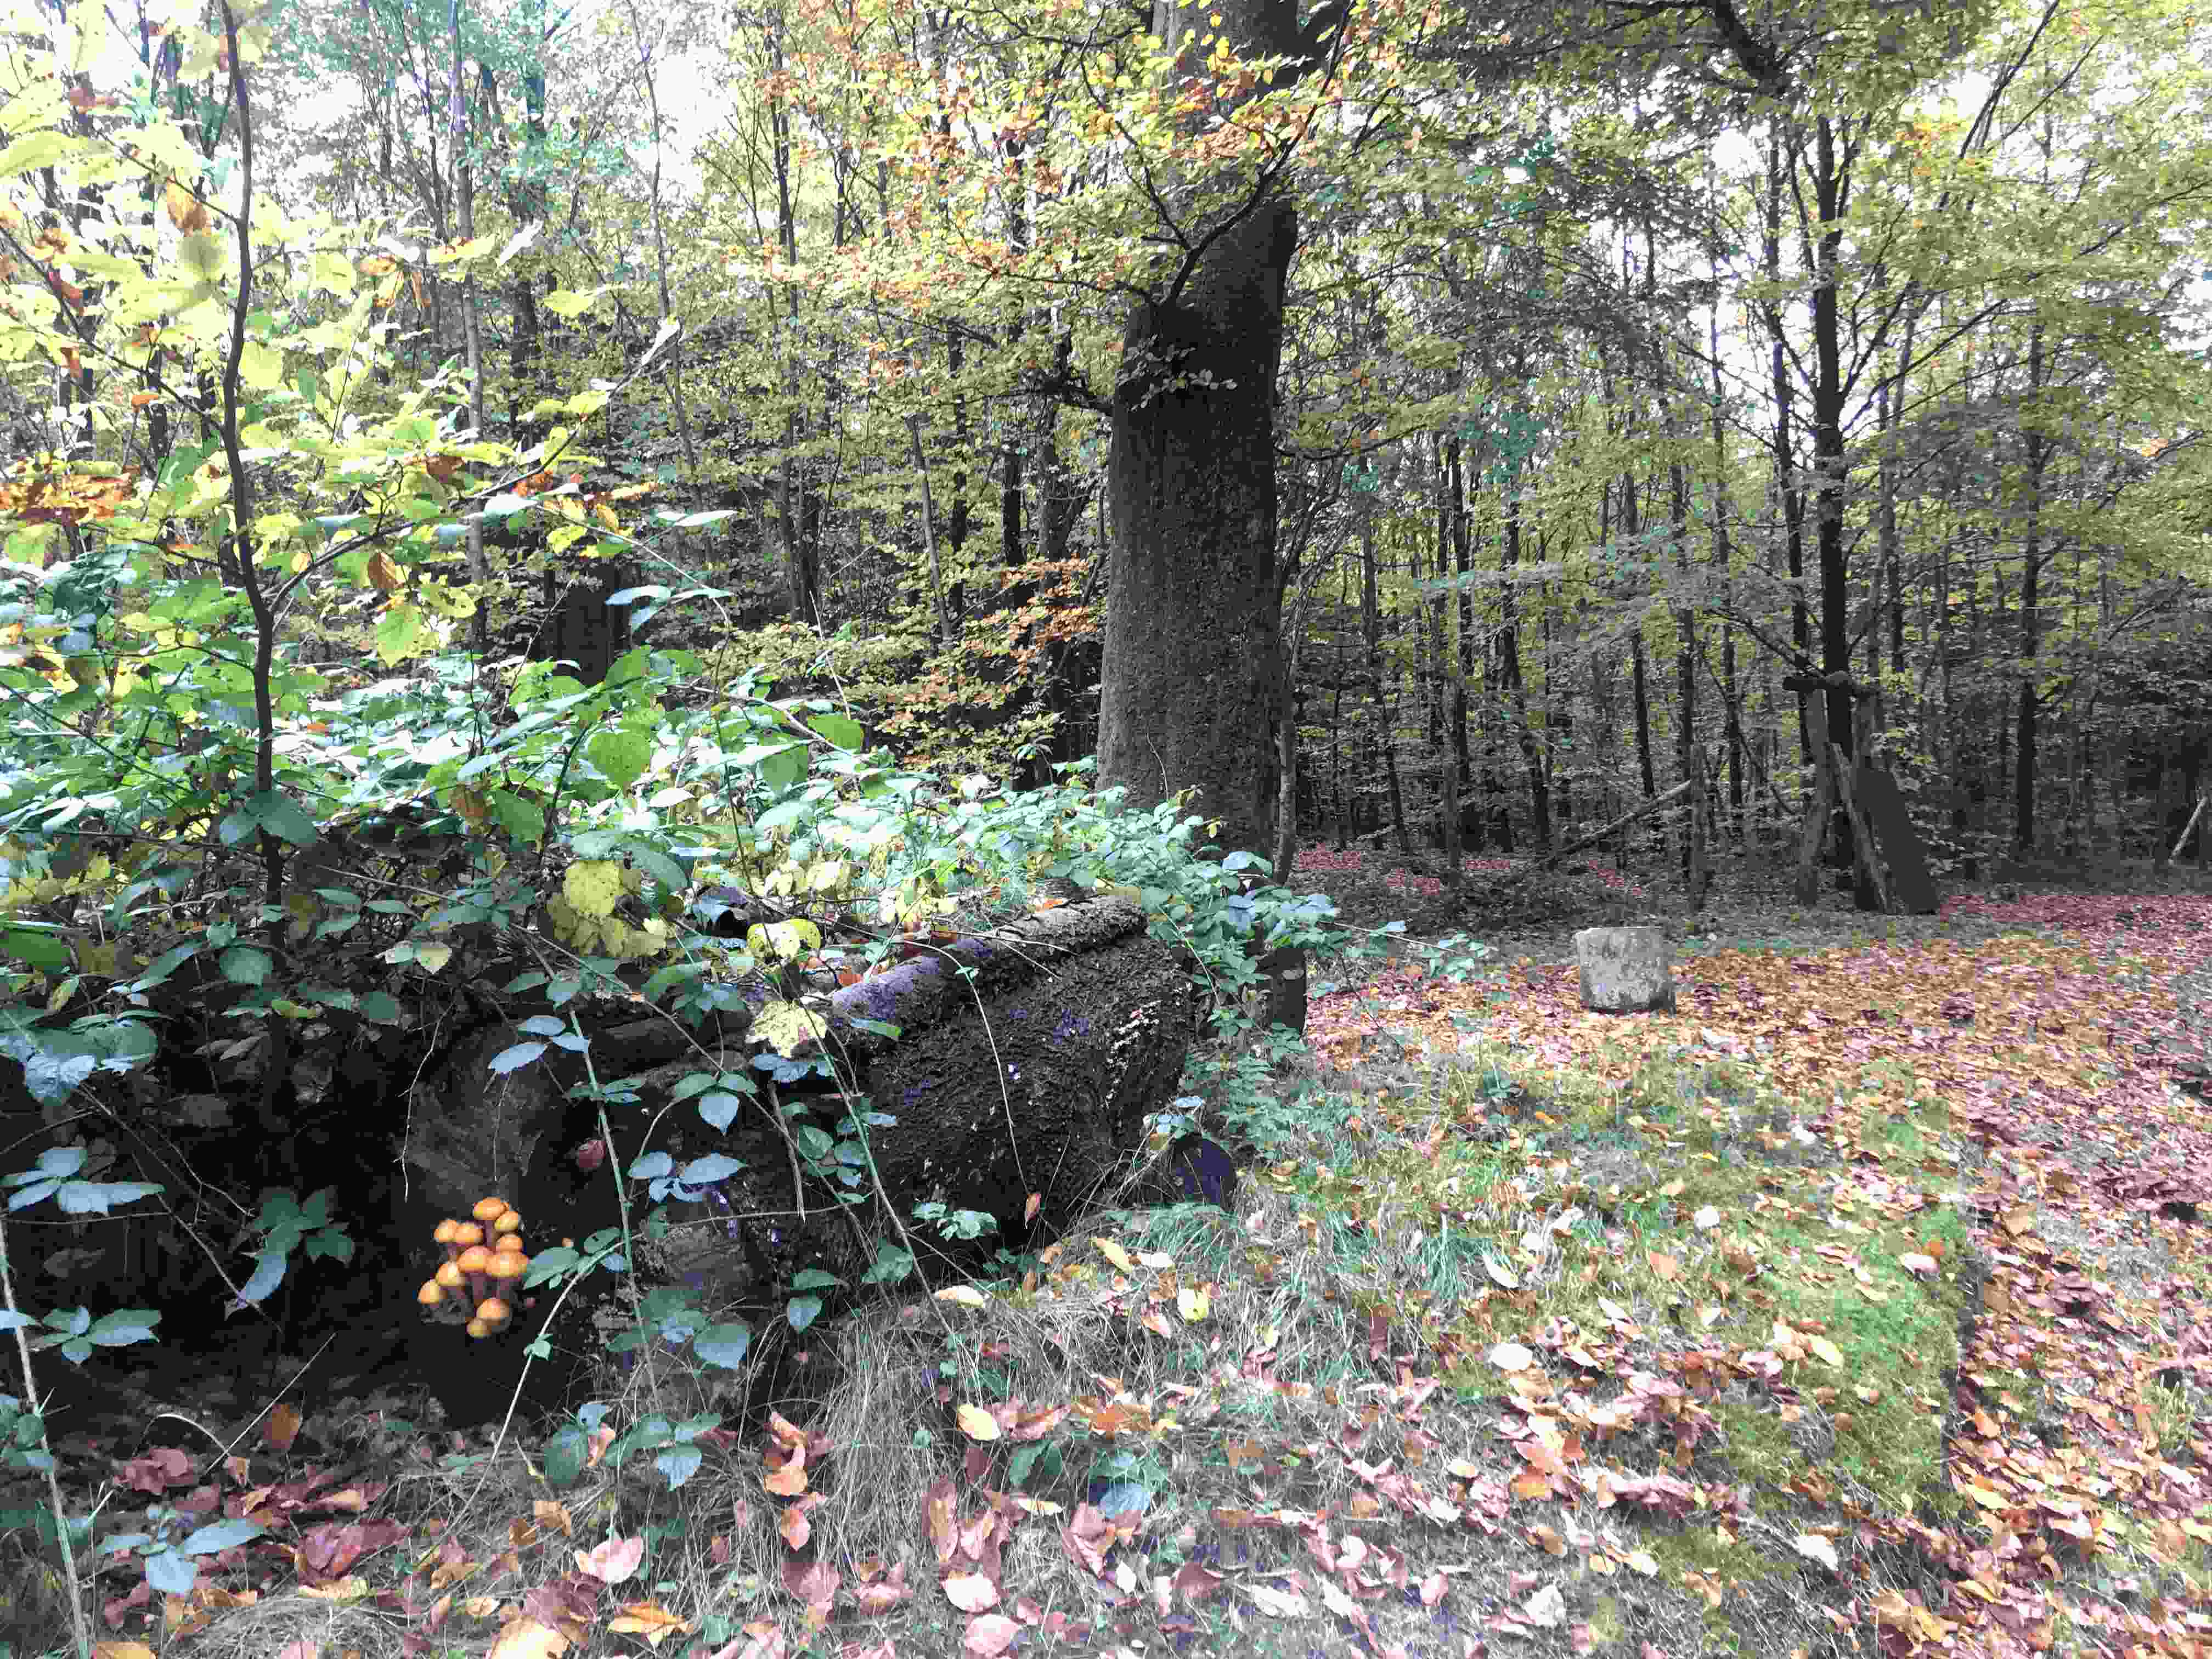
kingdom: Fungi
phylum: Basidiomycota
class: Agaricomycetes
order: Agaricales
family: Strophariaceae
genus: Pholiota
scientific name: Pholiota adiposa
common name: højtsiddende skælhat
